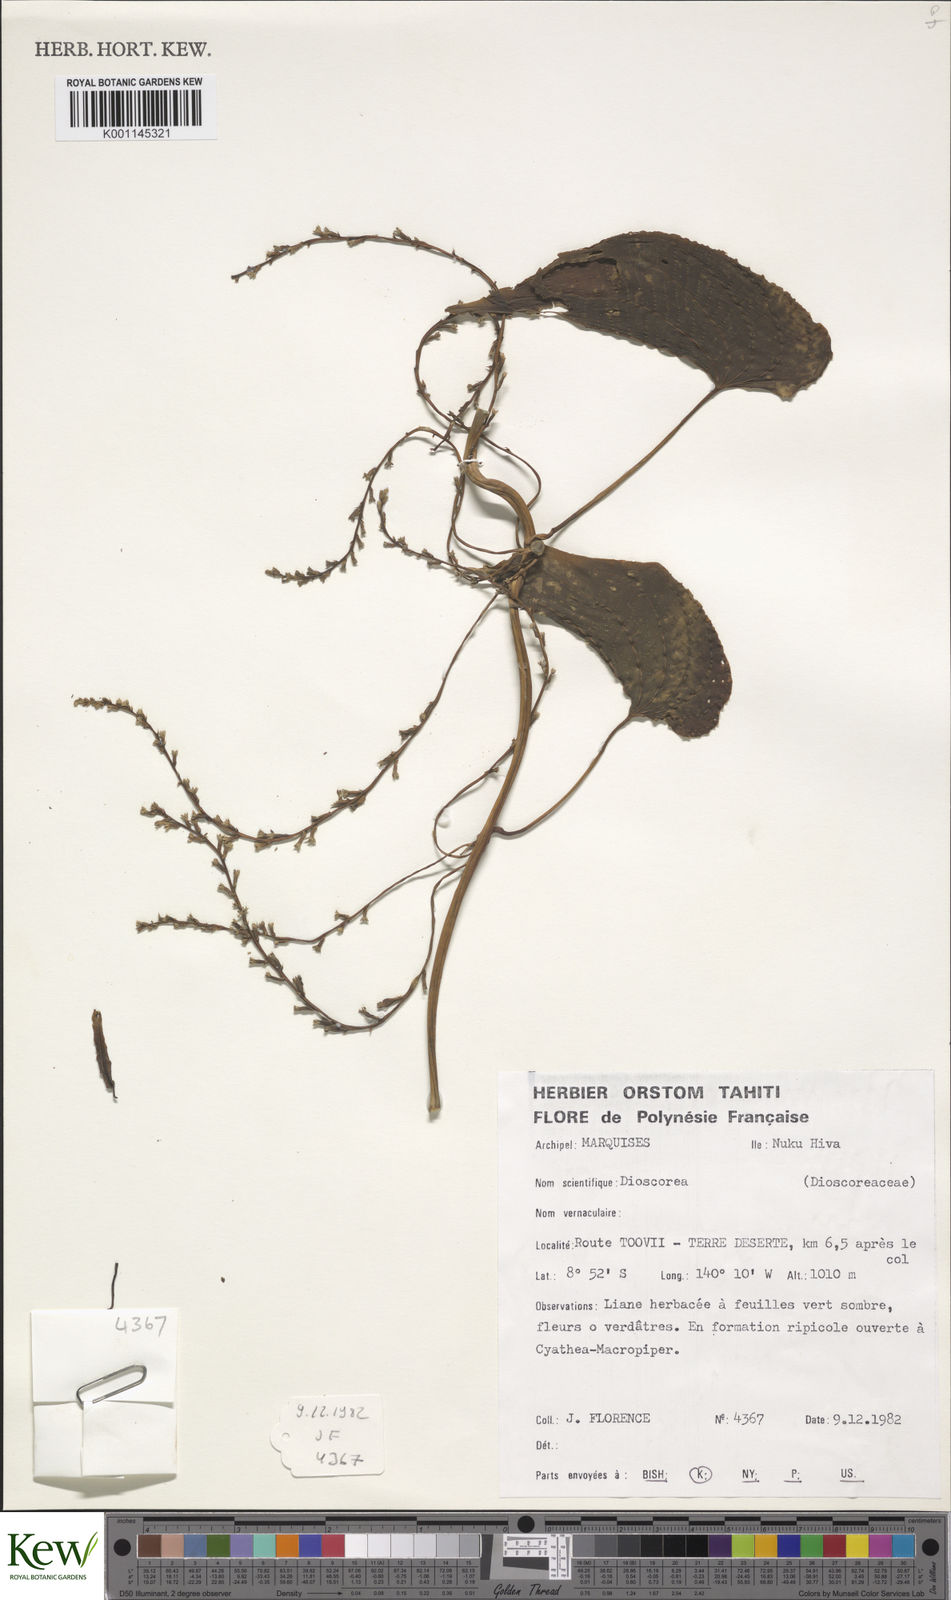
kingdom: Plantae
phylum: Tracheophyta
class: Liliopsida
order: Dioscoreales
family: Dioscoreaceae
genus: Dioscorea
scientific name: Dioscorea
